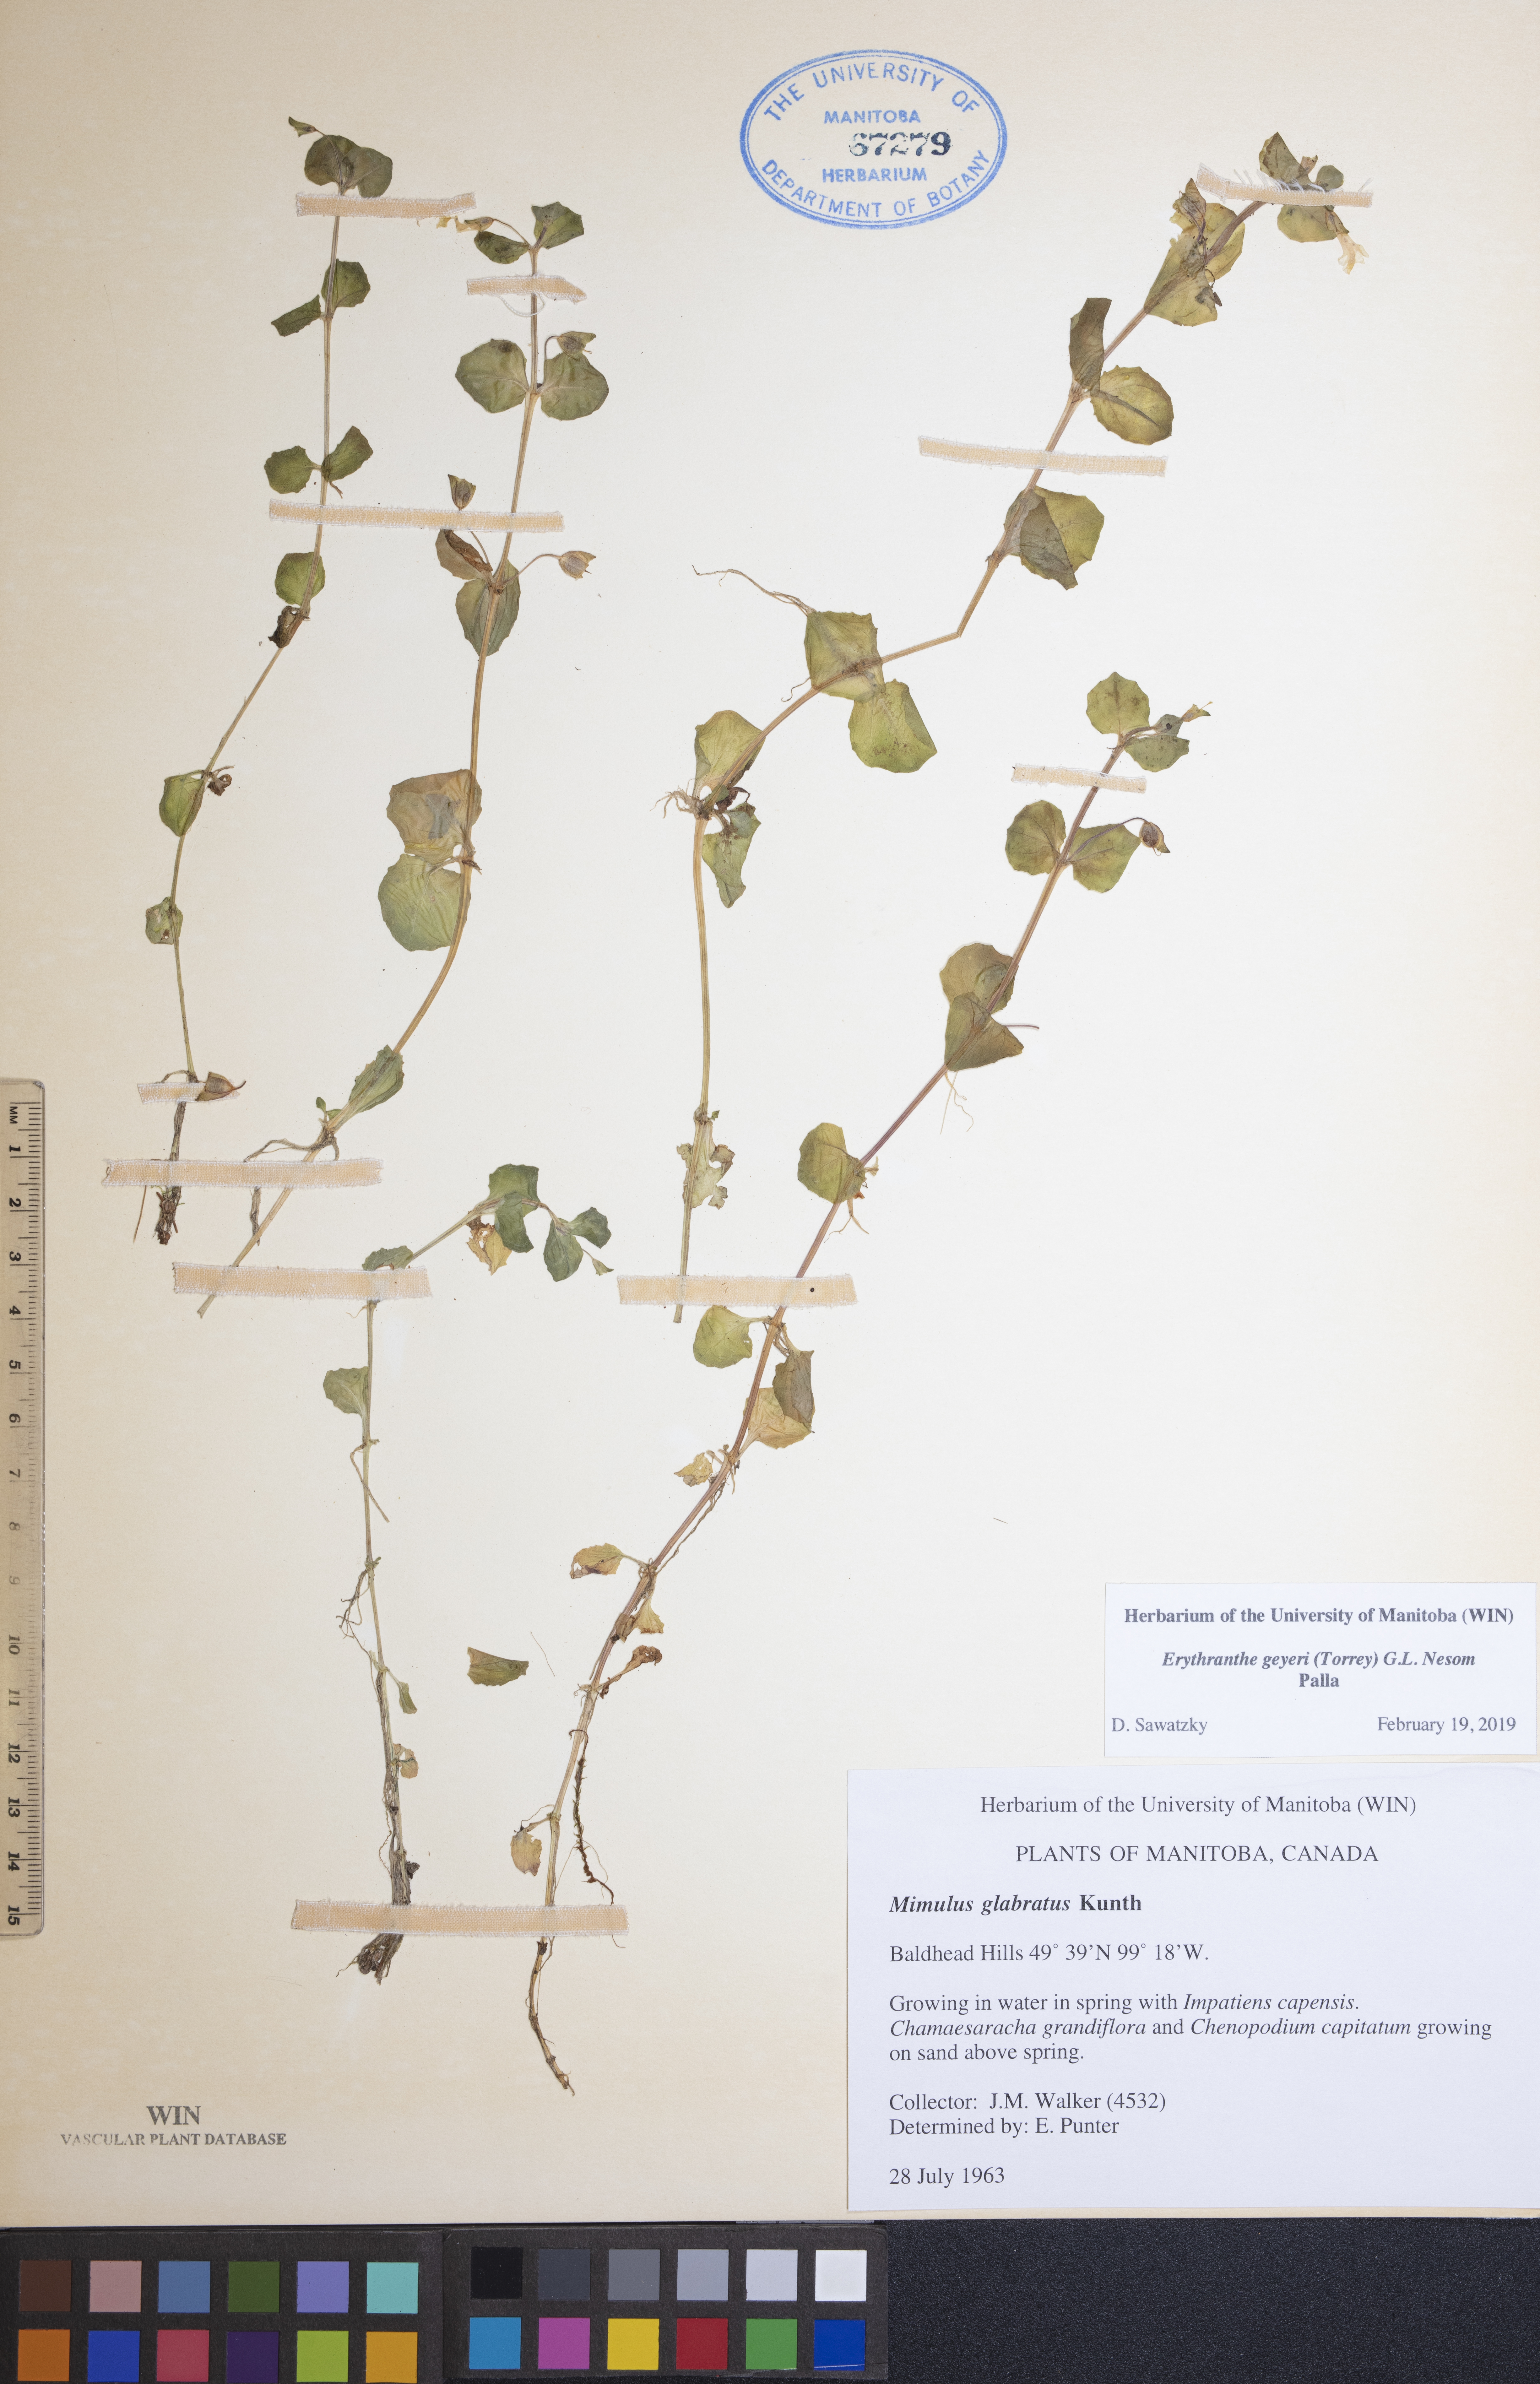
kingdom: Plantae
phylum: Tracheophyta
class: Magnoliopsida
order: Lamiales
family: Phrymaceae
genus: Erythranthe
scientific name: Erythranthe geyeri
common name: Geyer's monkeyflower
